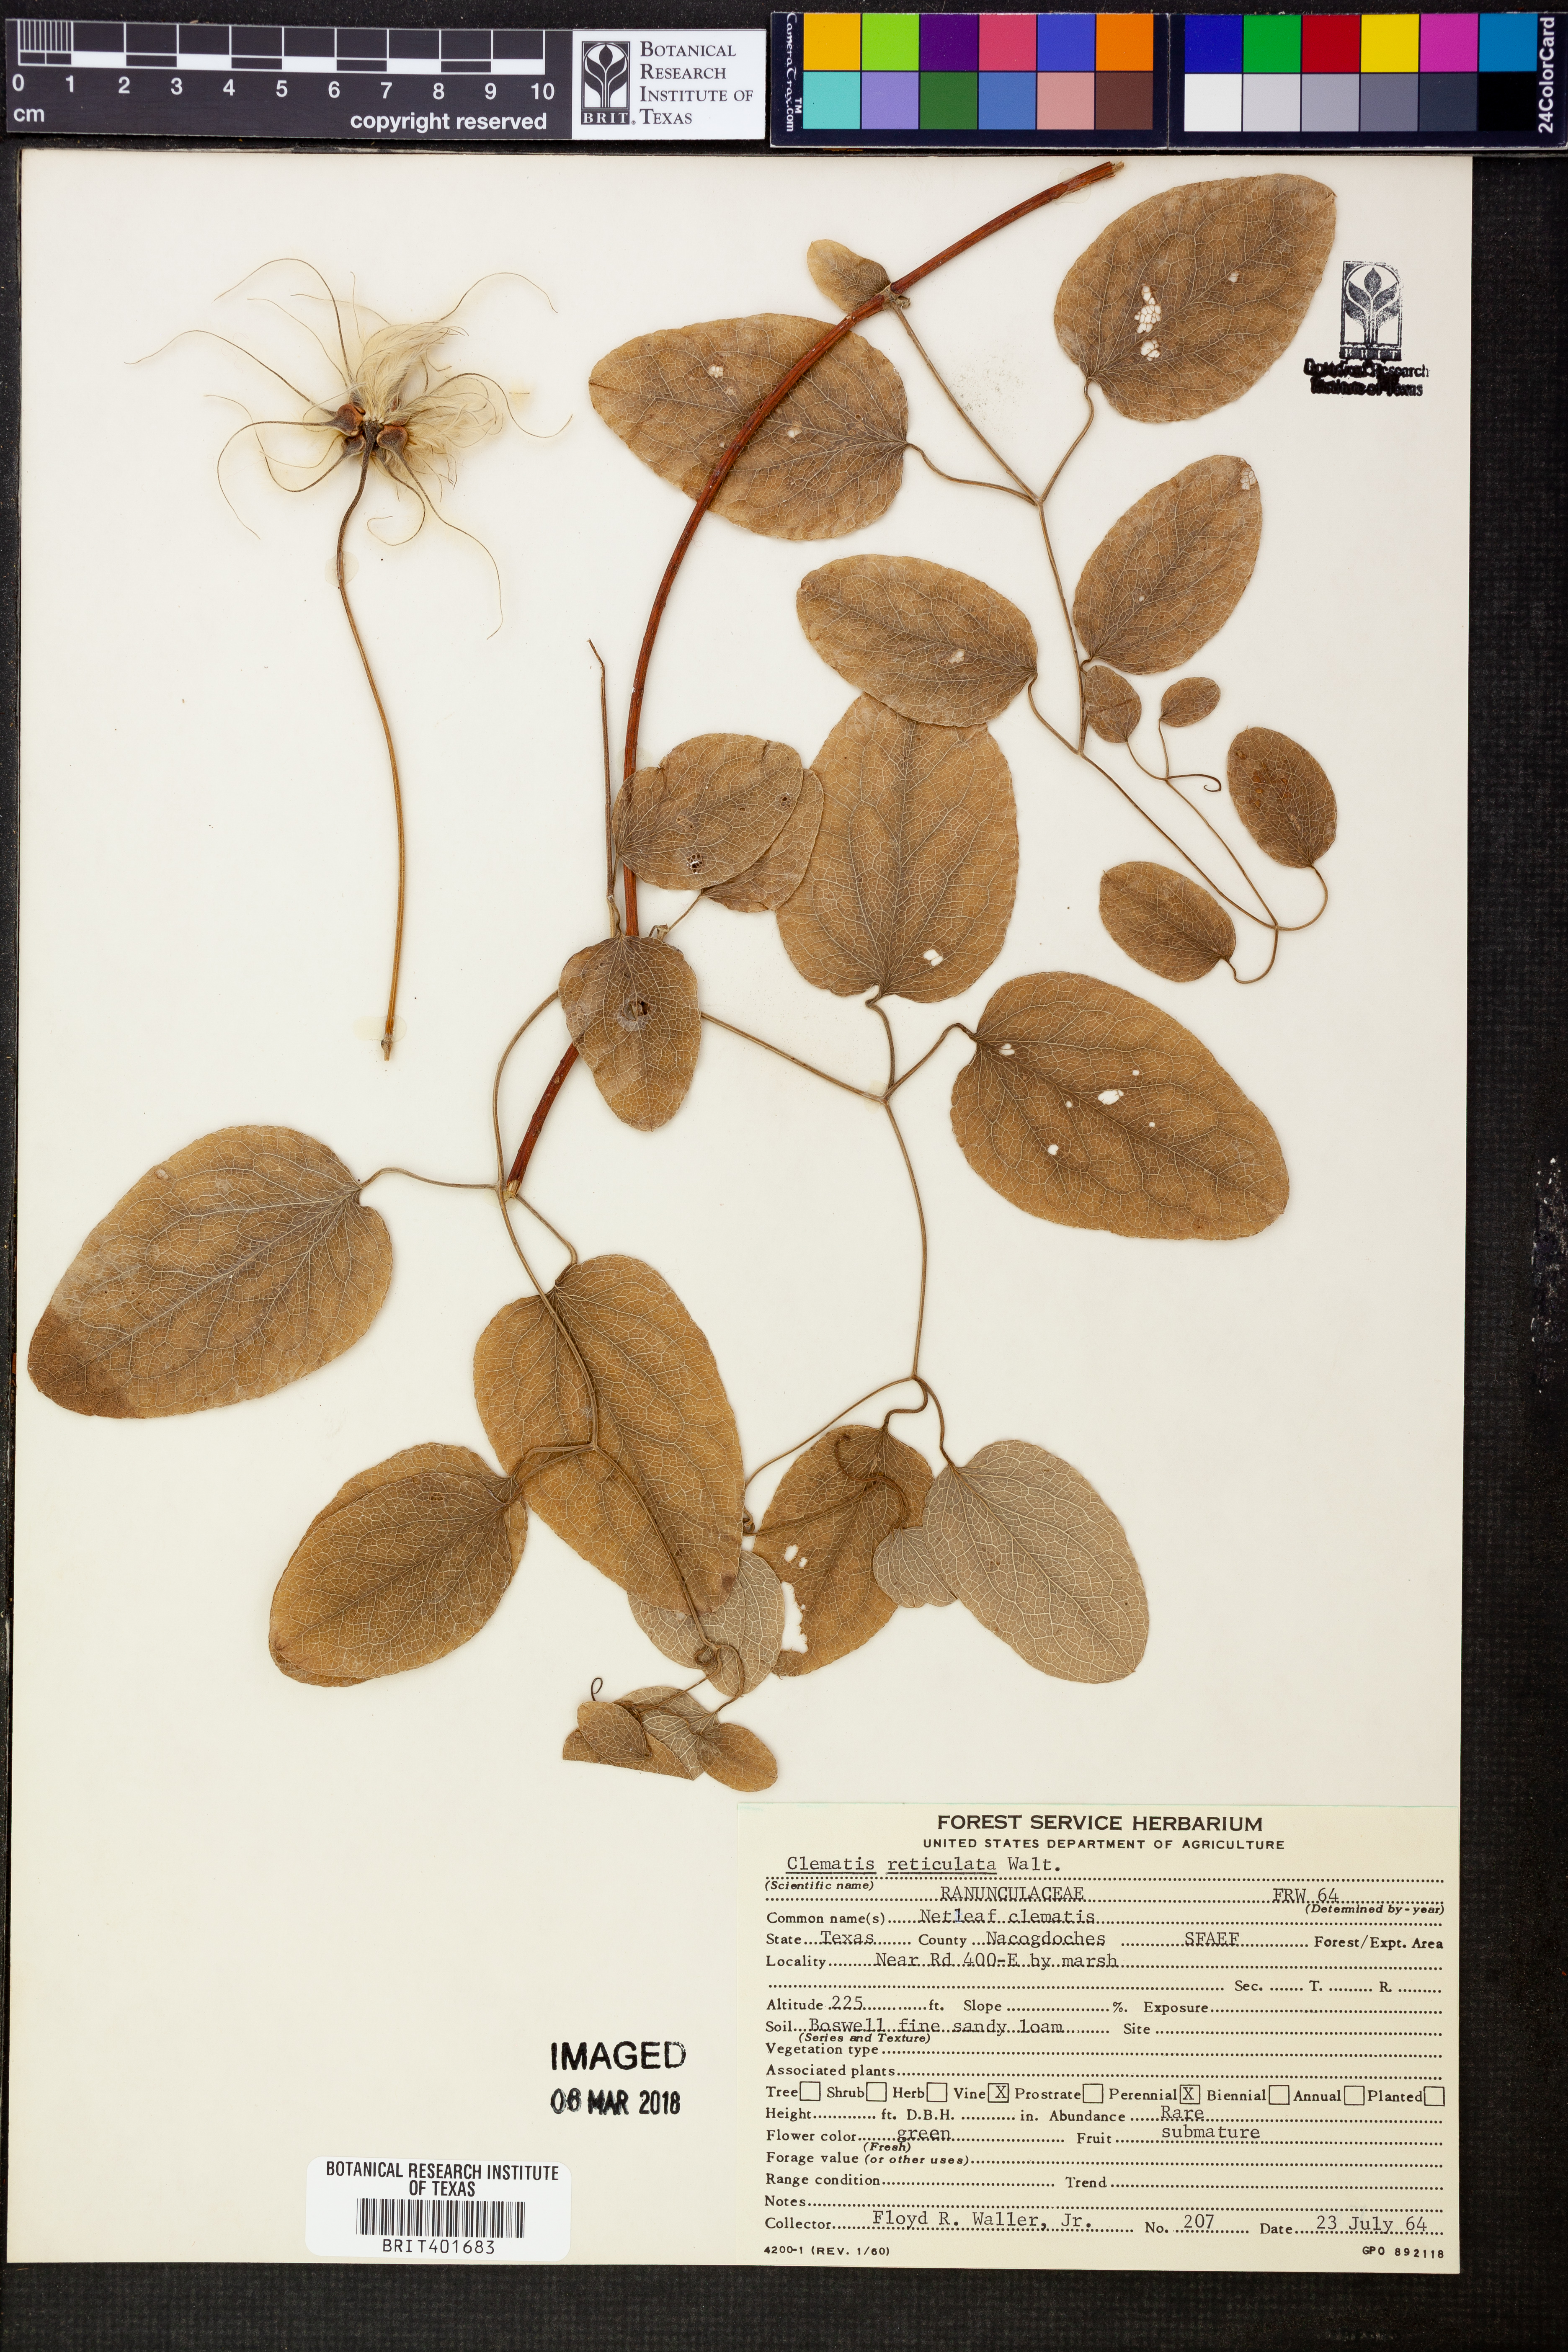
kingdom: Plantae
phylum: Tracheophyta
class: Magnoliopsida
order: Ranunculales
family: Ranunculaceae
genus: Clematis
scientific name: Clematis reticulata
